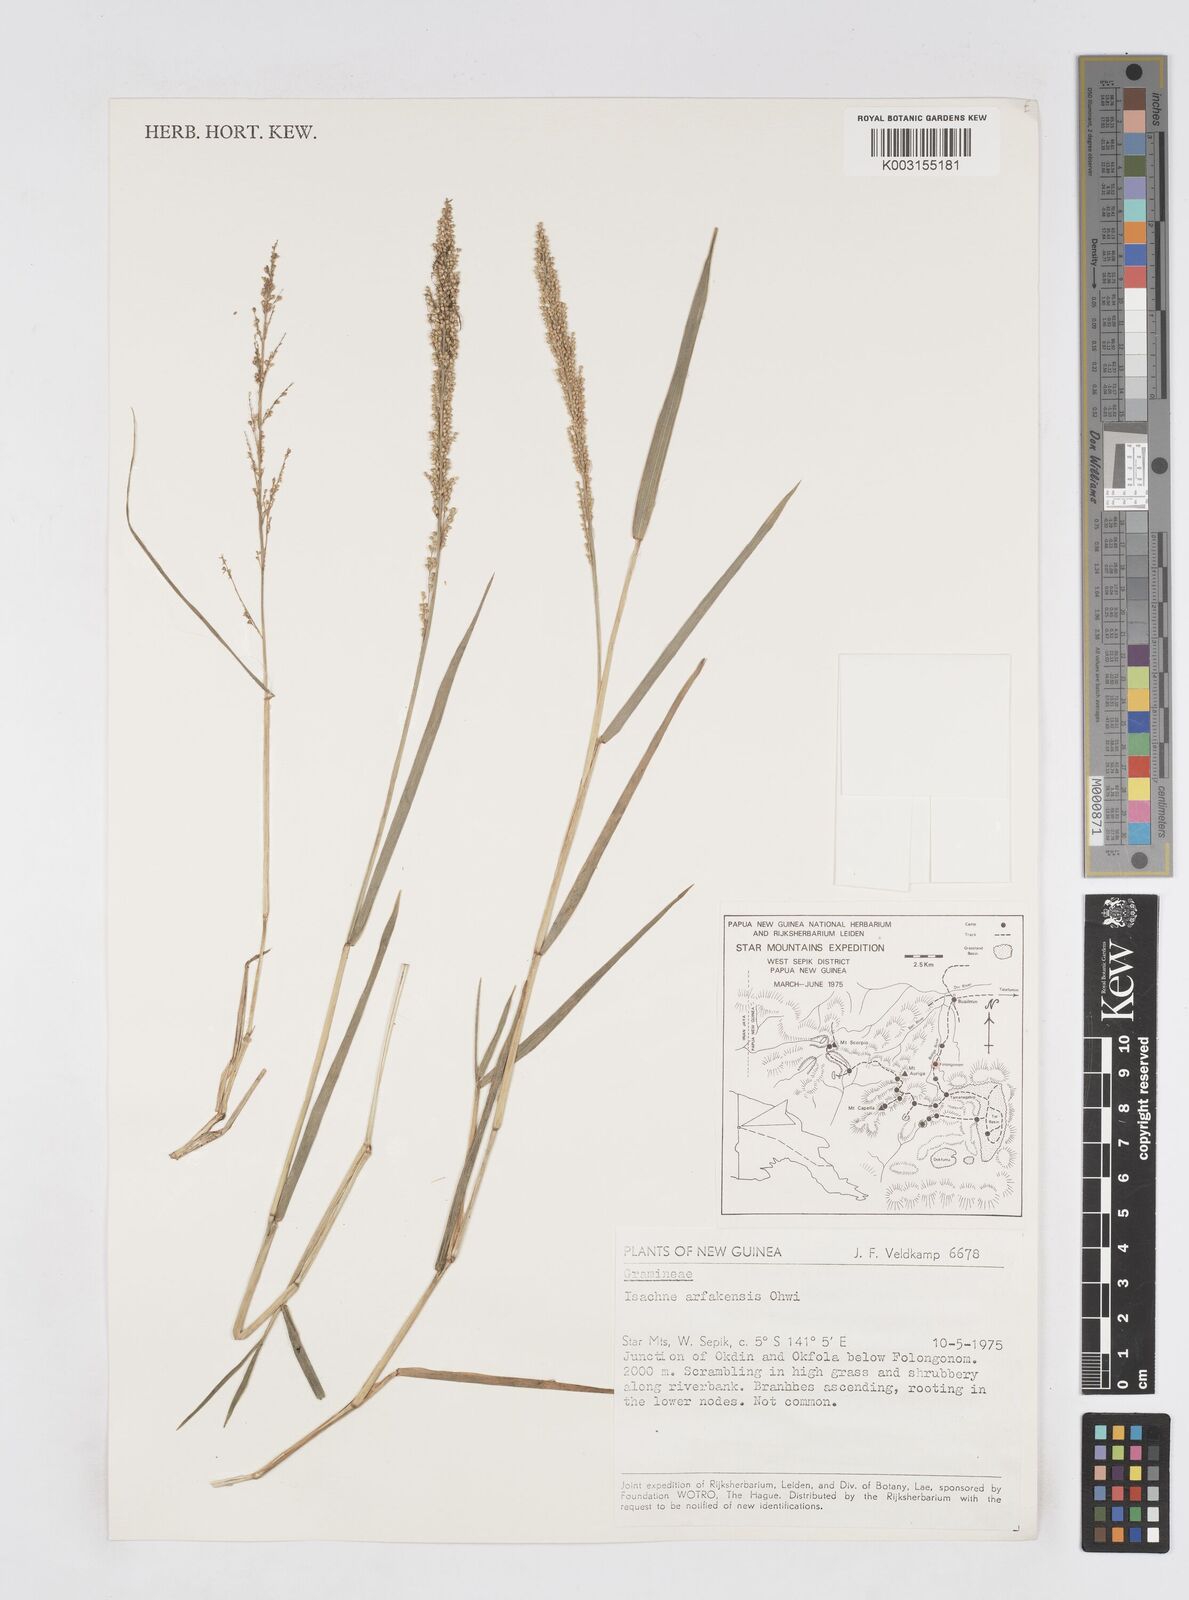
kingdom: Plantae
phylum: Tracheophyta
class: Liliopsida
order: Poales
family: Poaceae
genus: Isachne
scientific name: Isachne arfakensis
